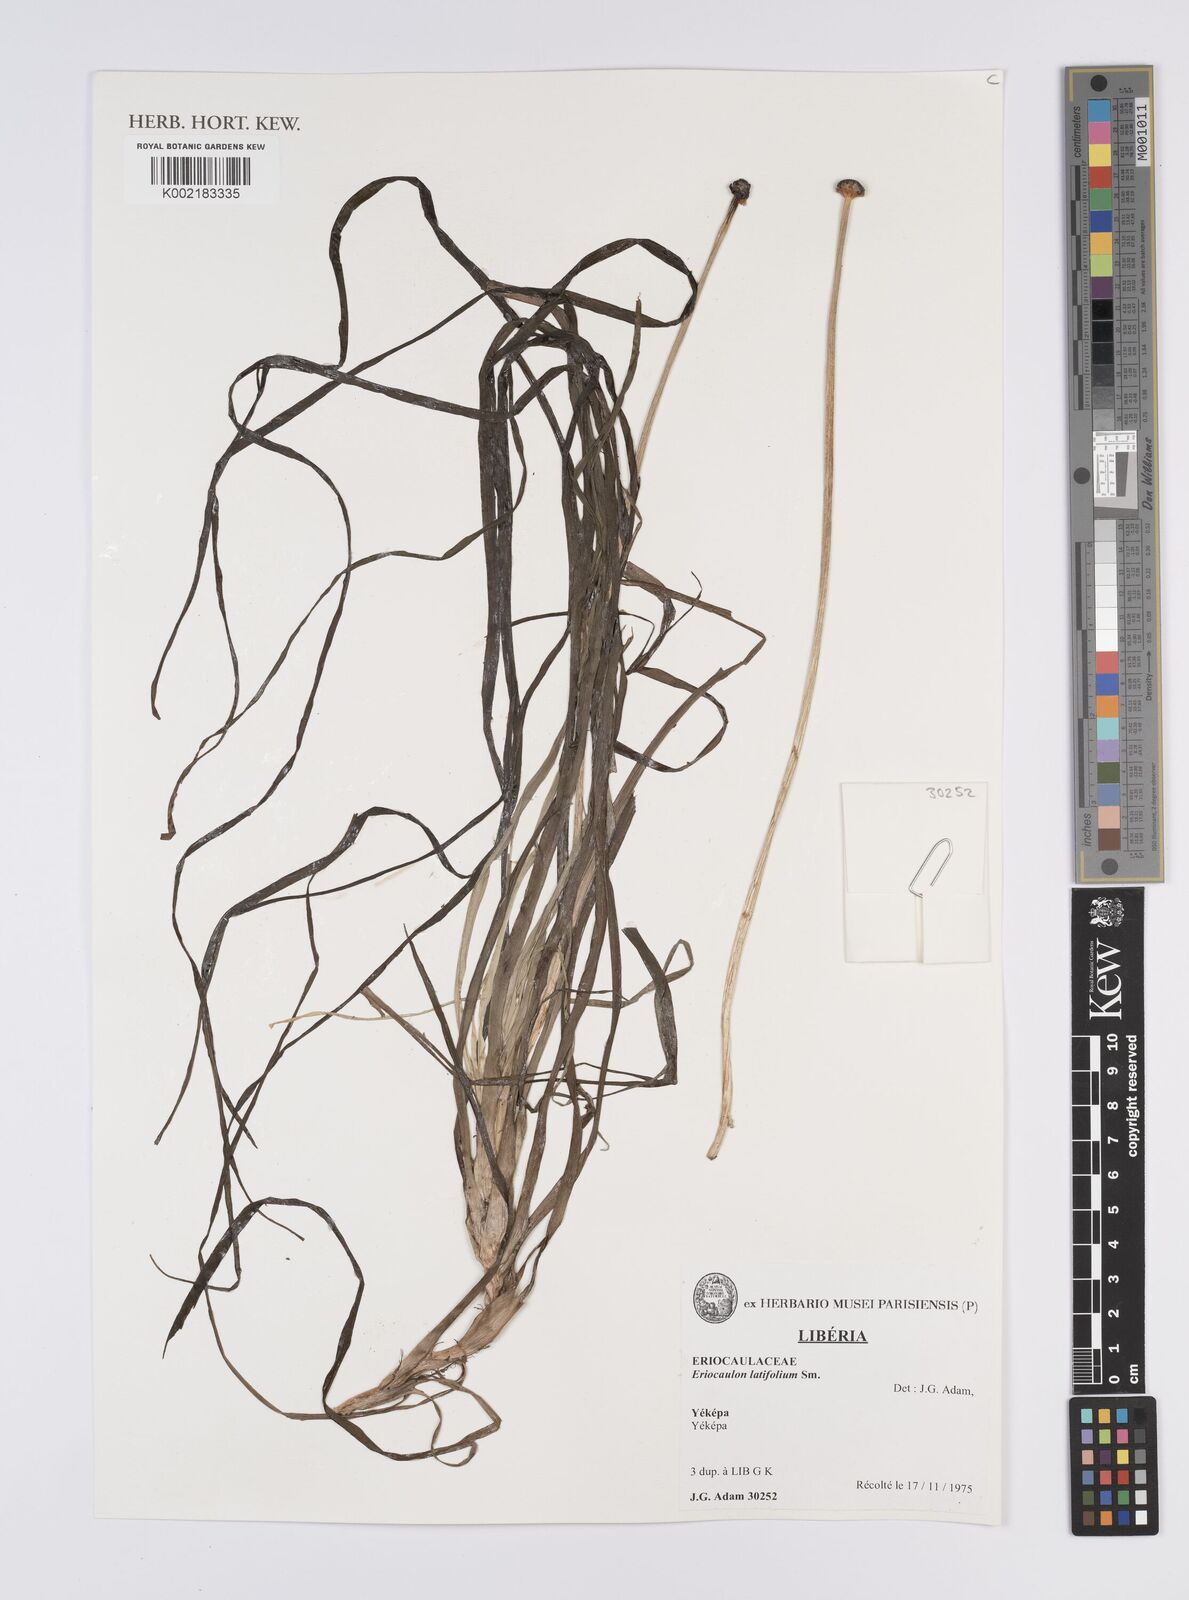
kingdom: Plantae
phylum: Tracheophyta
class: Liliopsida
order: Poales
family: Eriocaulaceae
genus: Eriocaulon
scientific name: Eriocaulon latifolium
